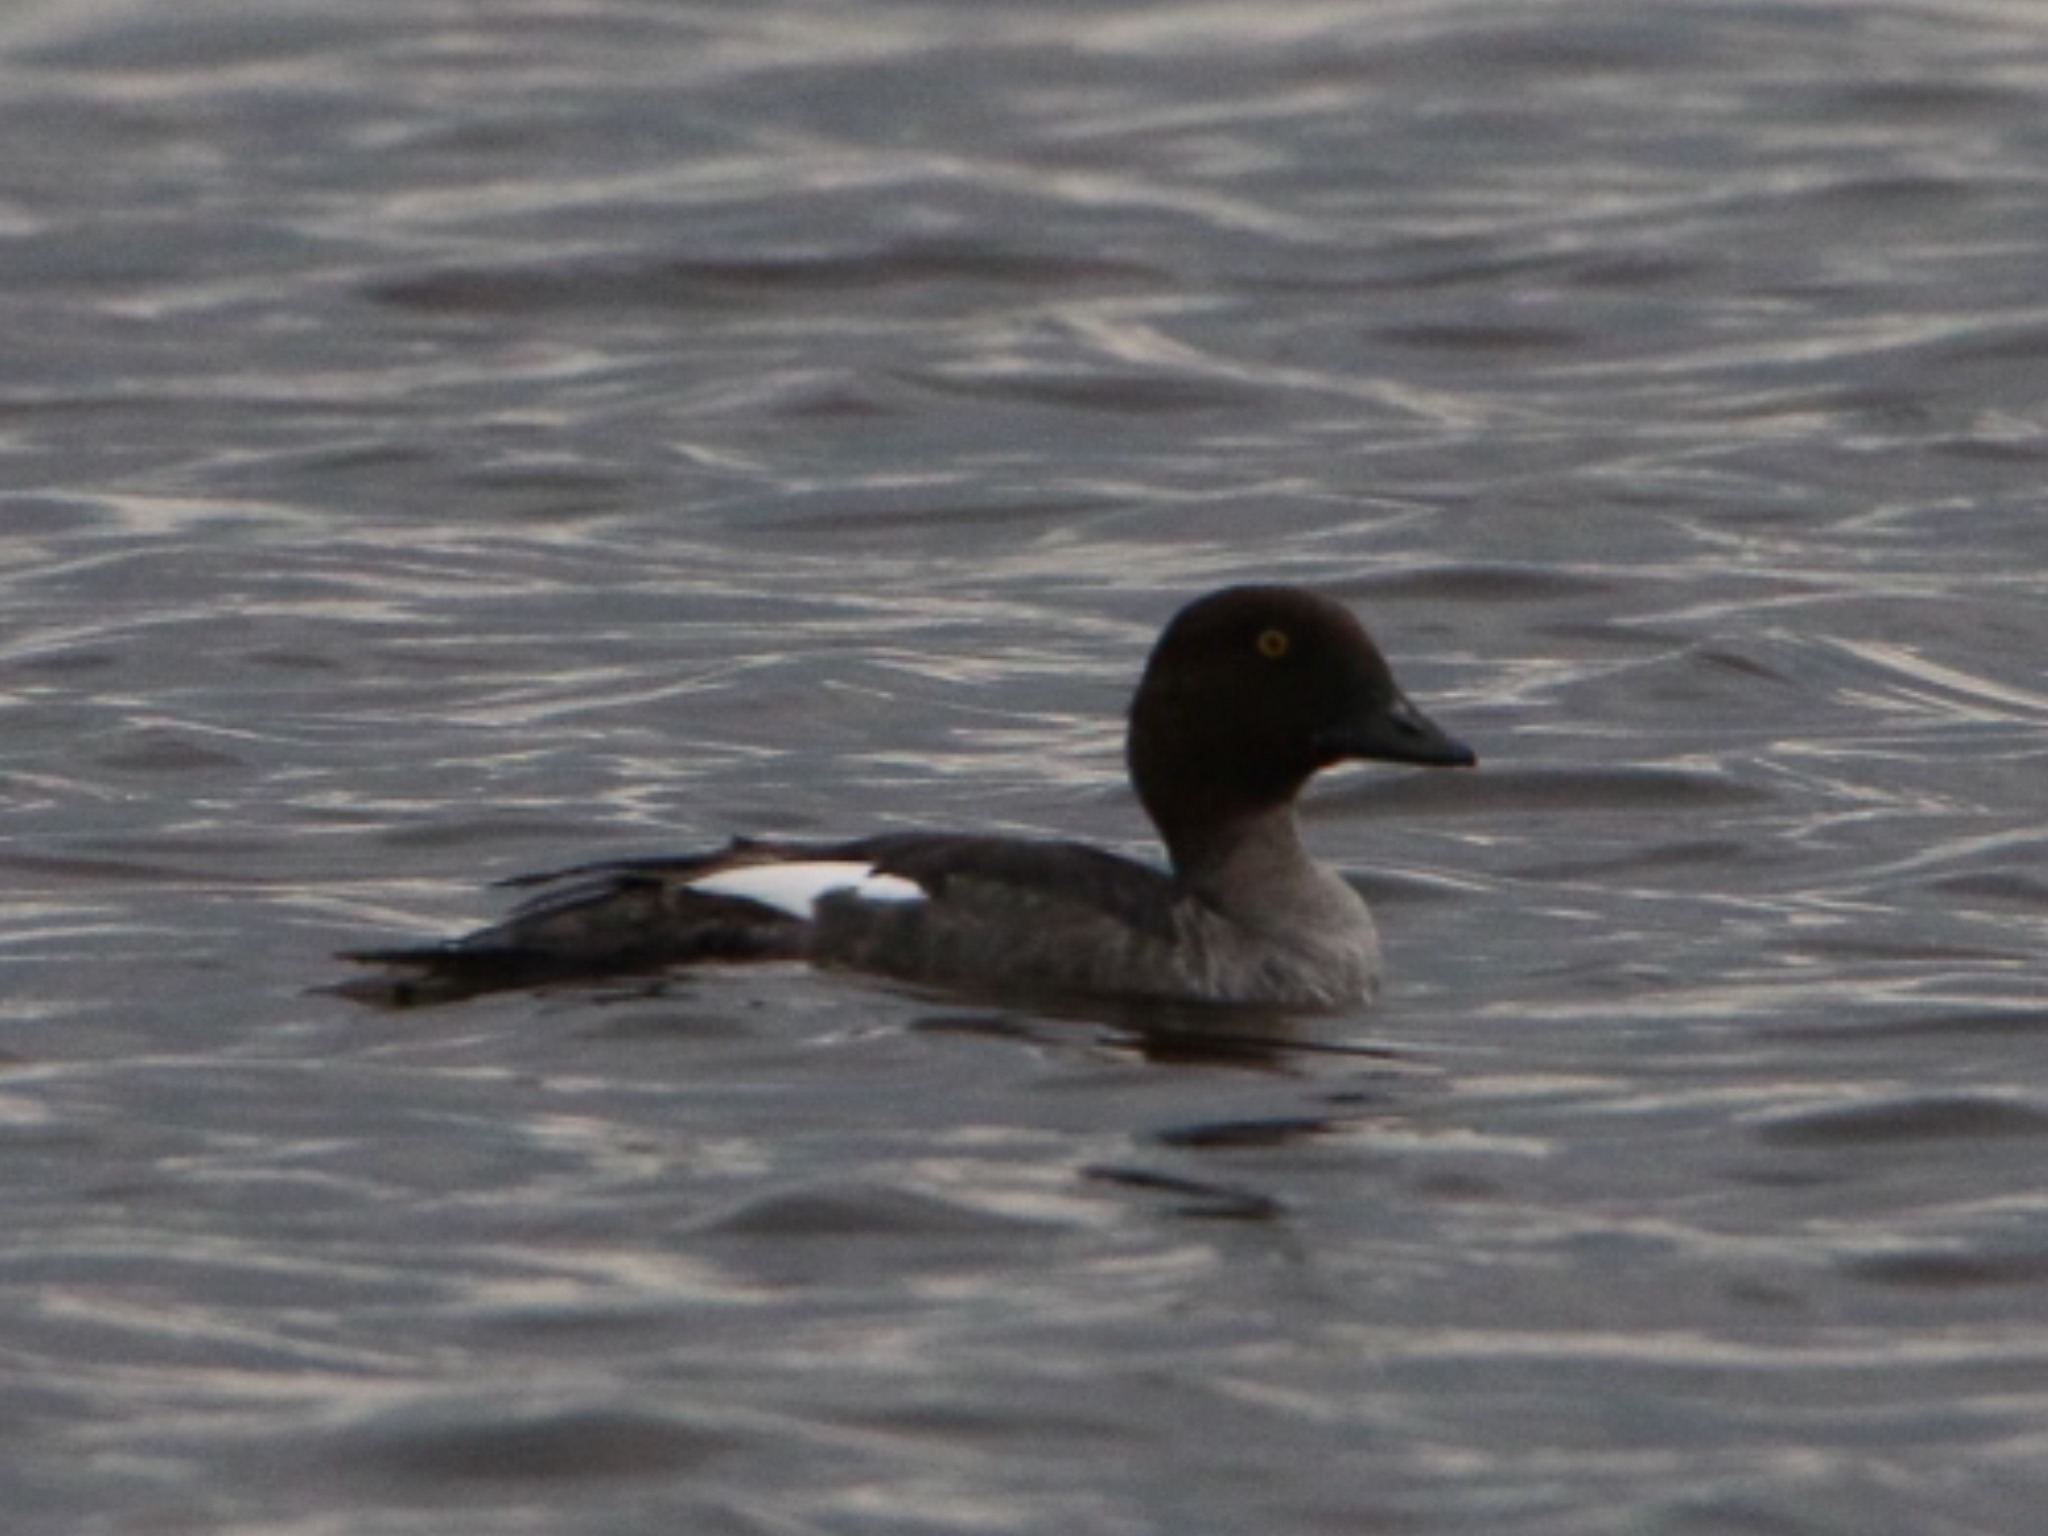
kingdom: Animalia
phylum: Chordata
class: Aves
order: Anseriformes
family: Anatidae
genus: Bucephala
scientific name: Bucephala clangula
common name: Hvinand
